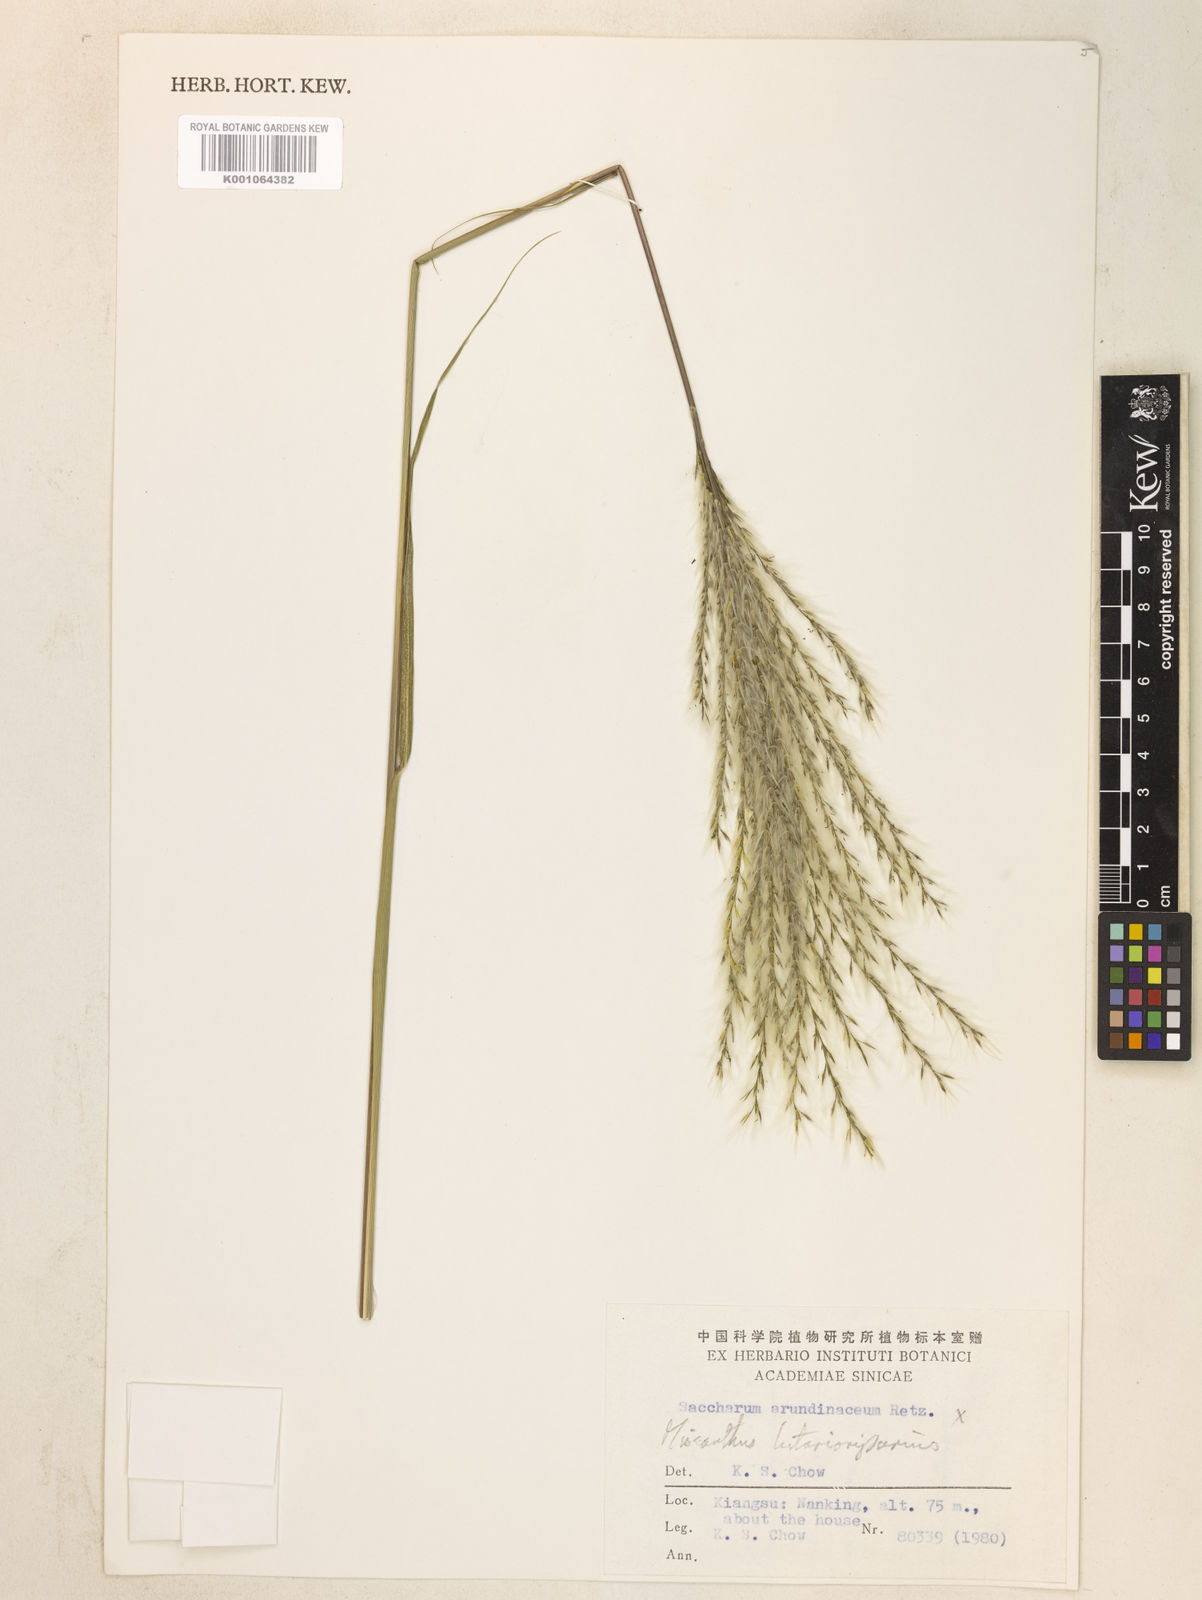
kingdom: Plantae
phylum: Tracheophyta
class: Liliopsida
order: Poales
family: Poaceae
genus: Miscanthus
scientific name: Miscanthus
